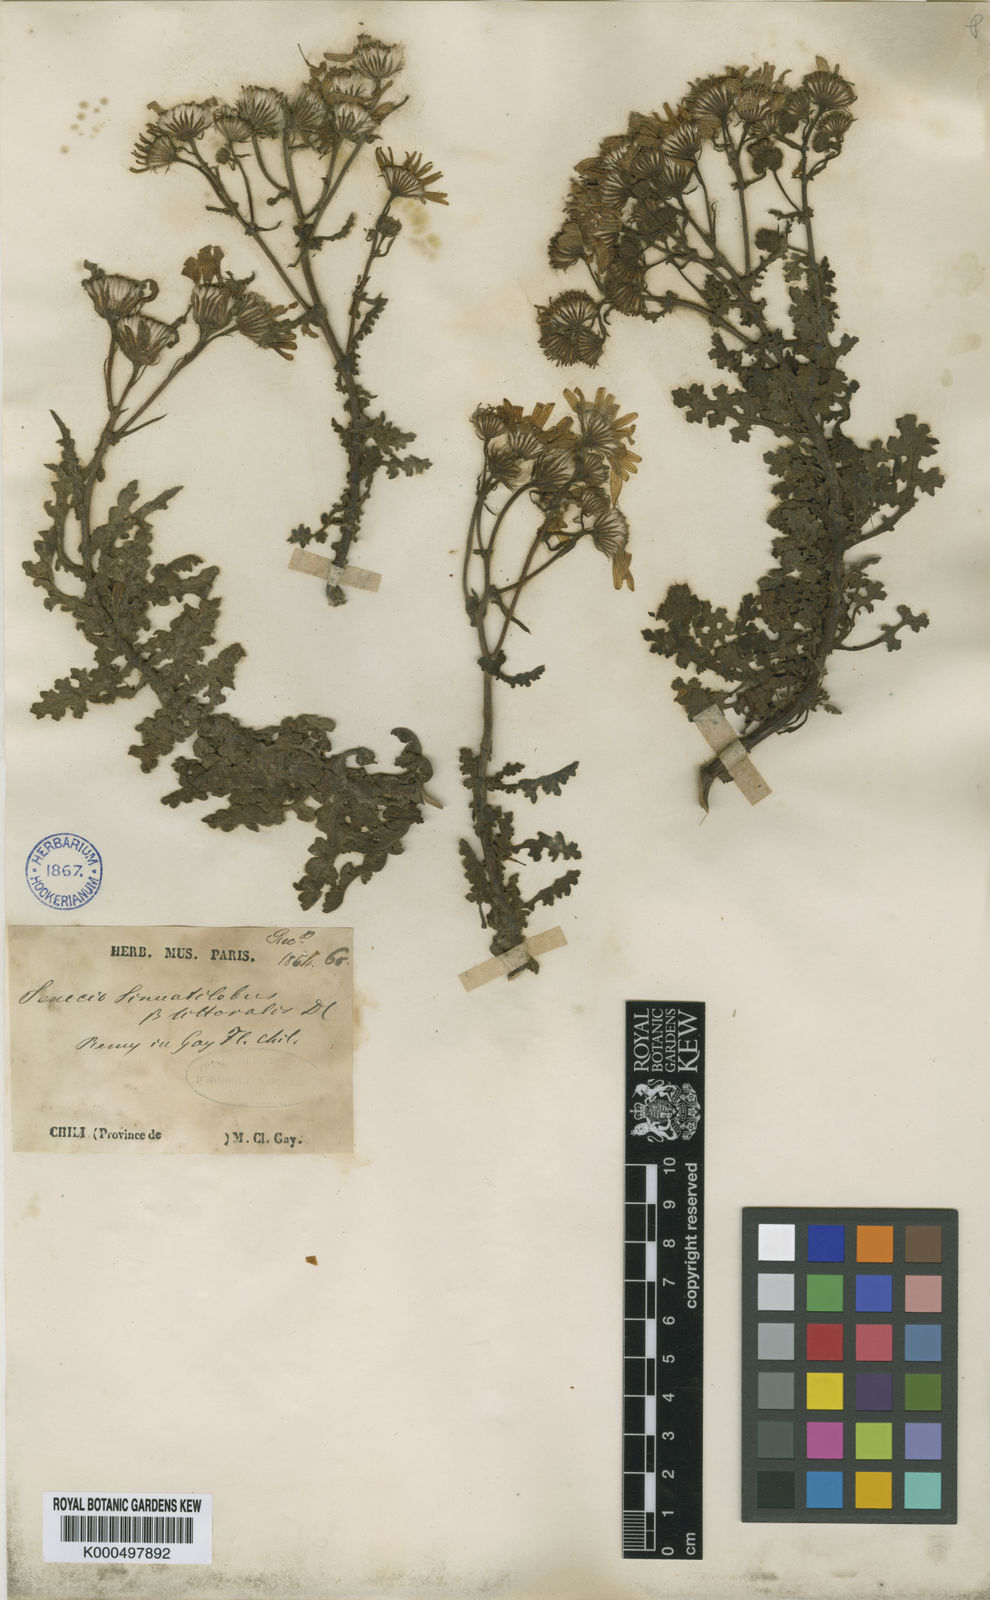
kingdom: Plantae
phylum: Tracheophyta
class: Magnoliopsida
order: Asterales
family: Asteraceae
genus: Senecio
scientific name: Senecio sinuatilobus
